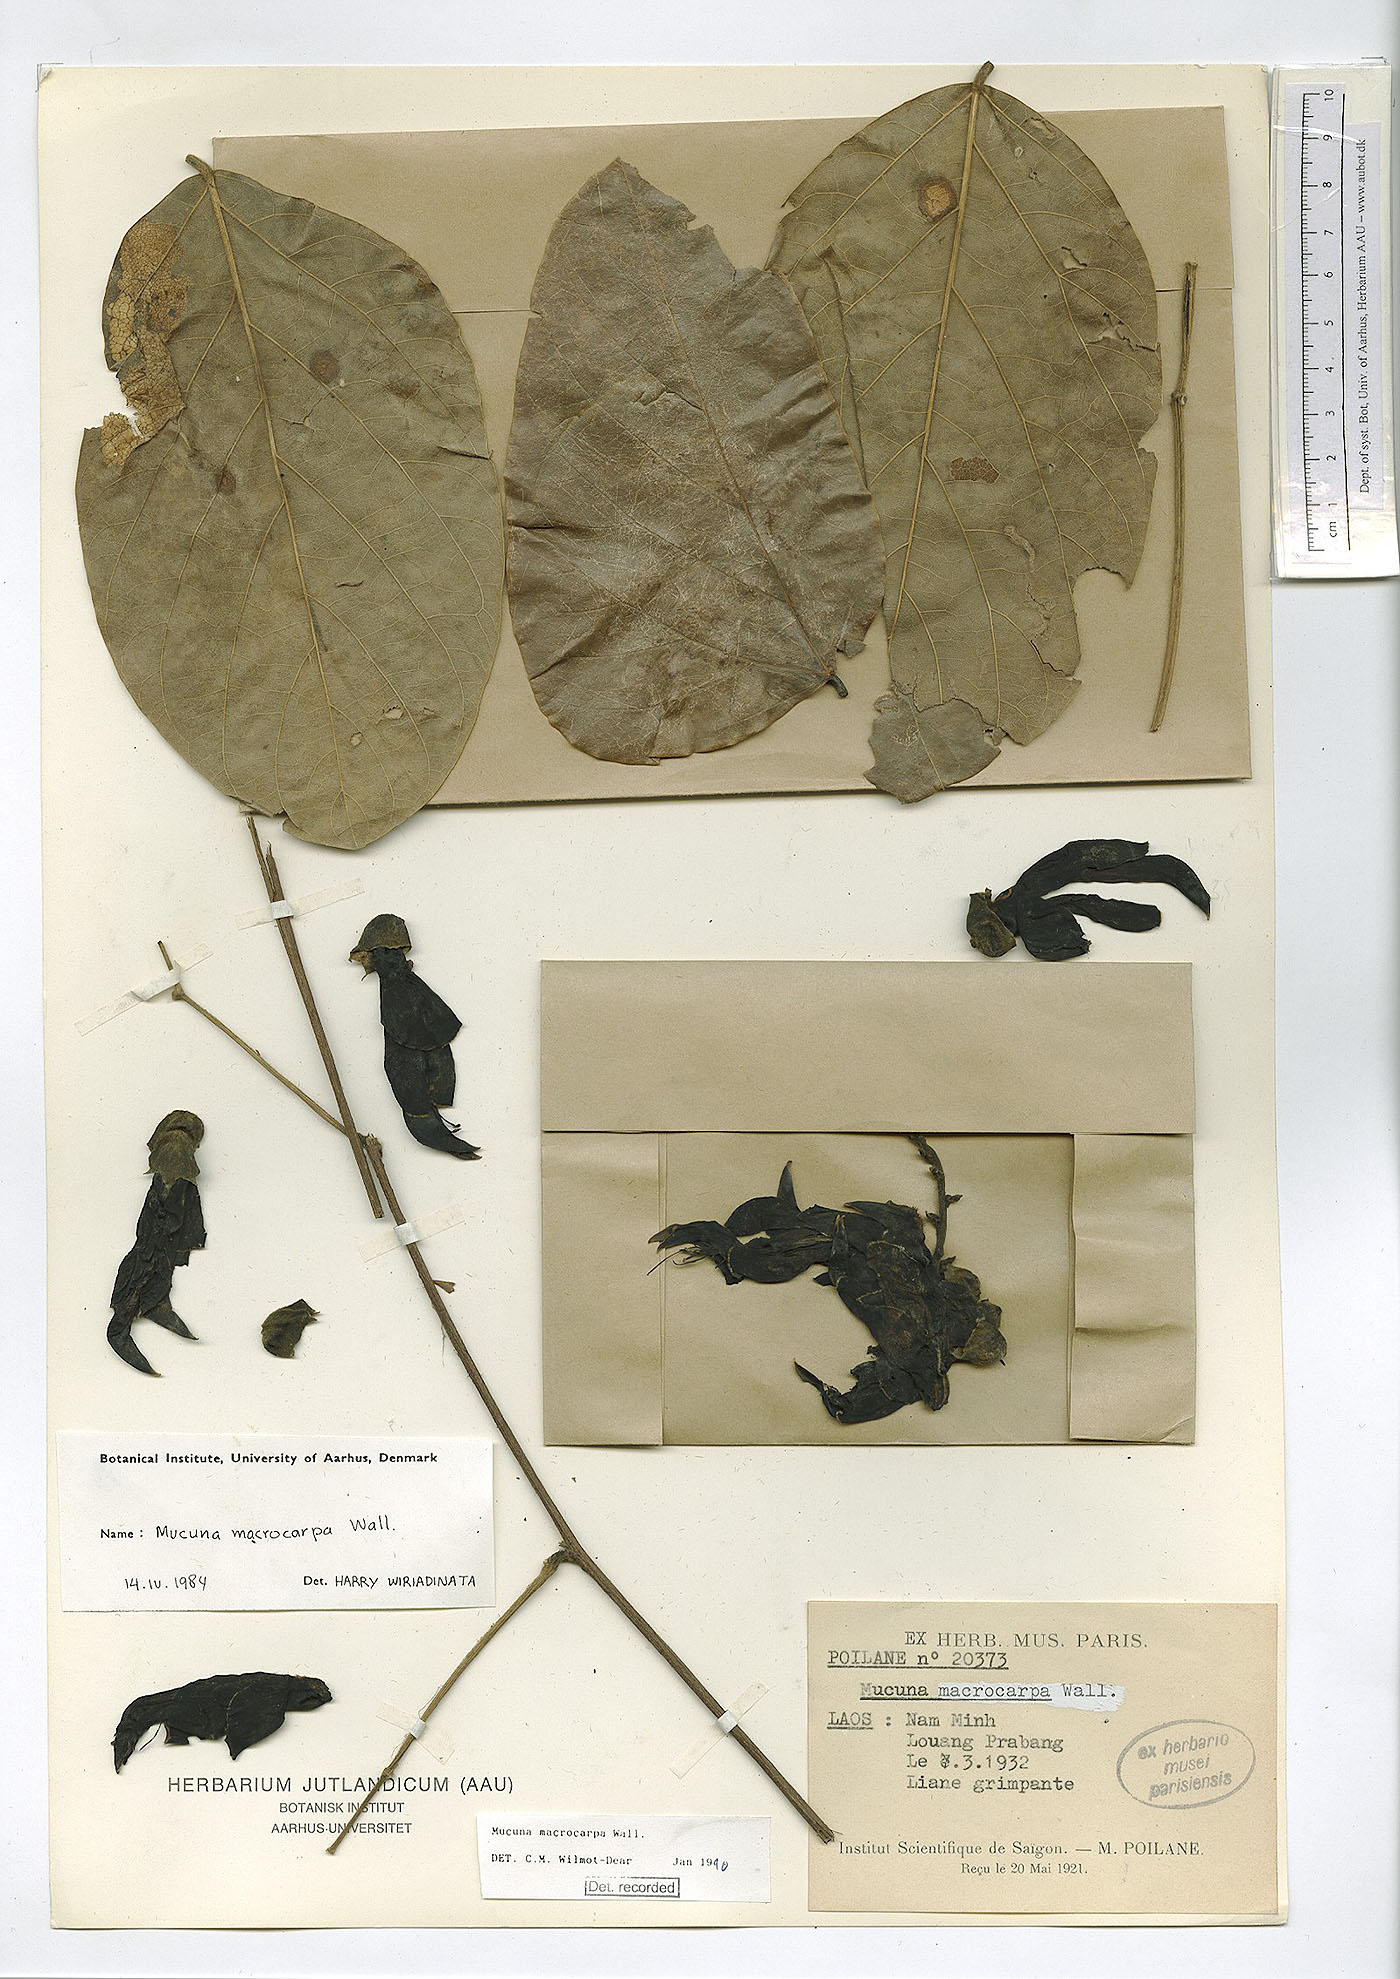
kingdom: Plantae
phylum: Tracheophyta
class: Magnoliopsida
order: Fabales
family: Fabaceae
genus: Mucuna
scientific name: Mucuna macrocarpa
